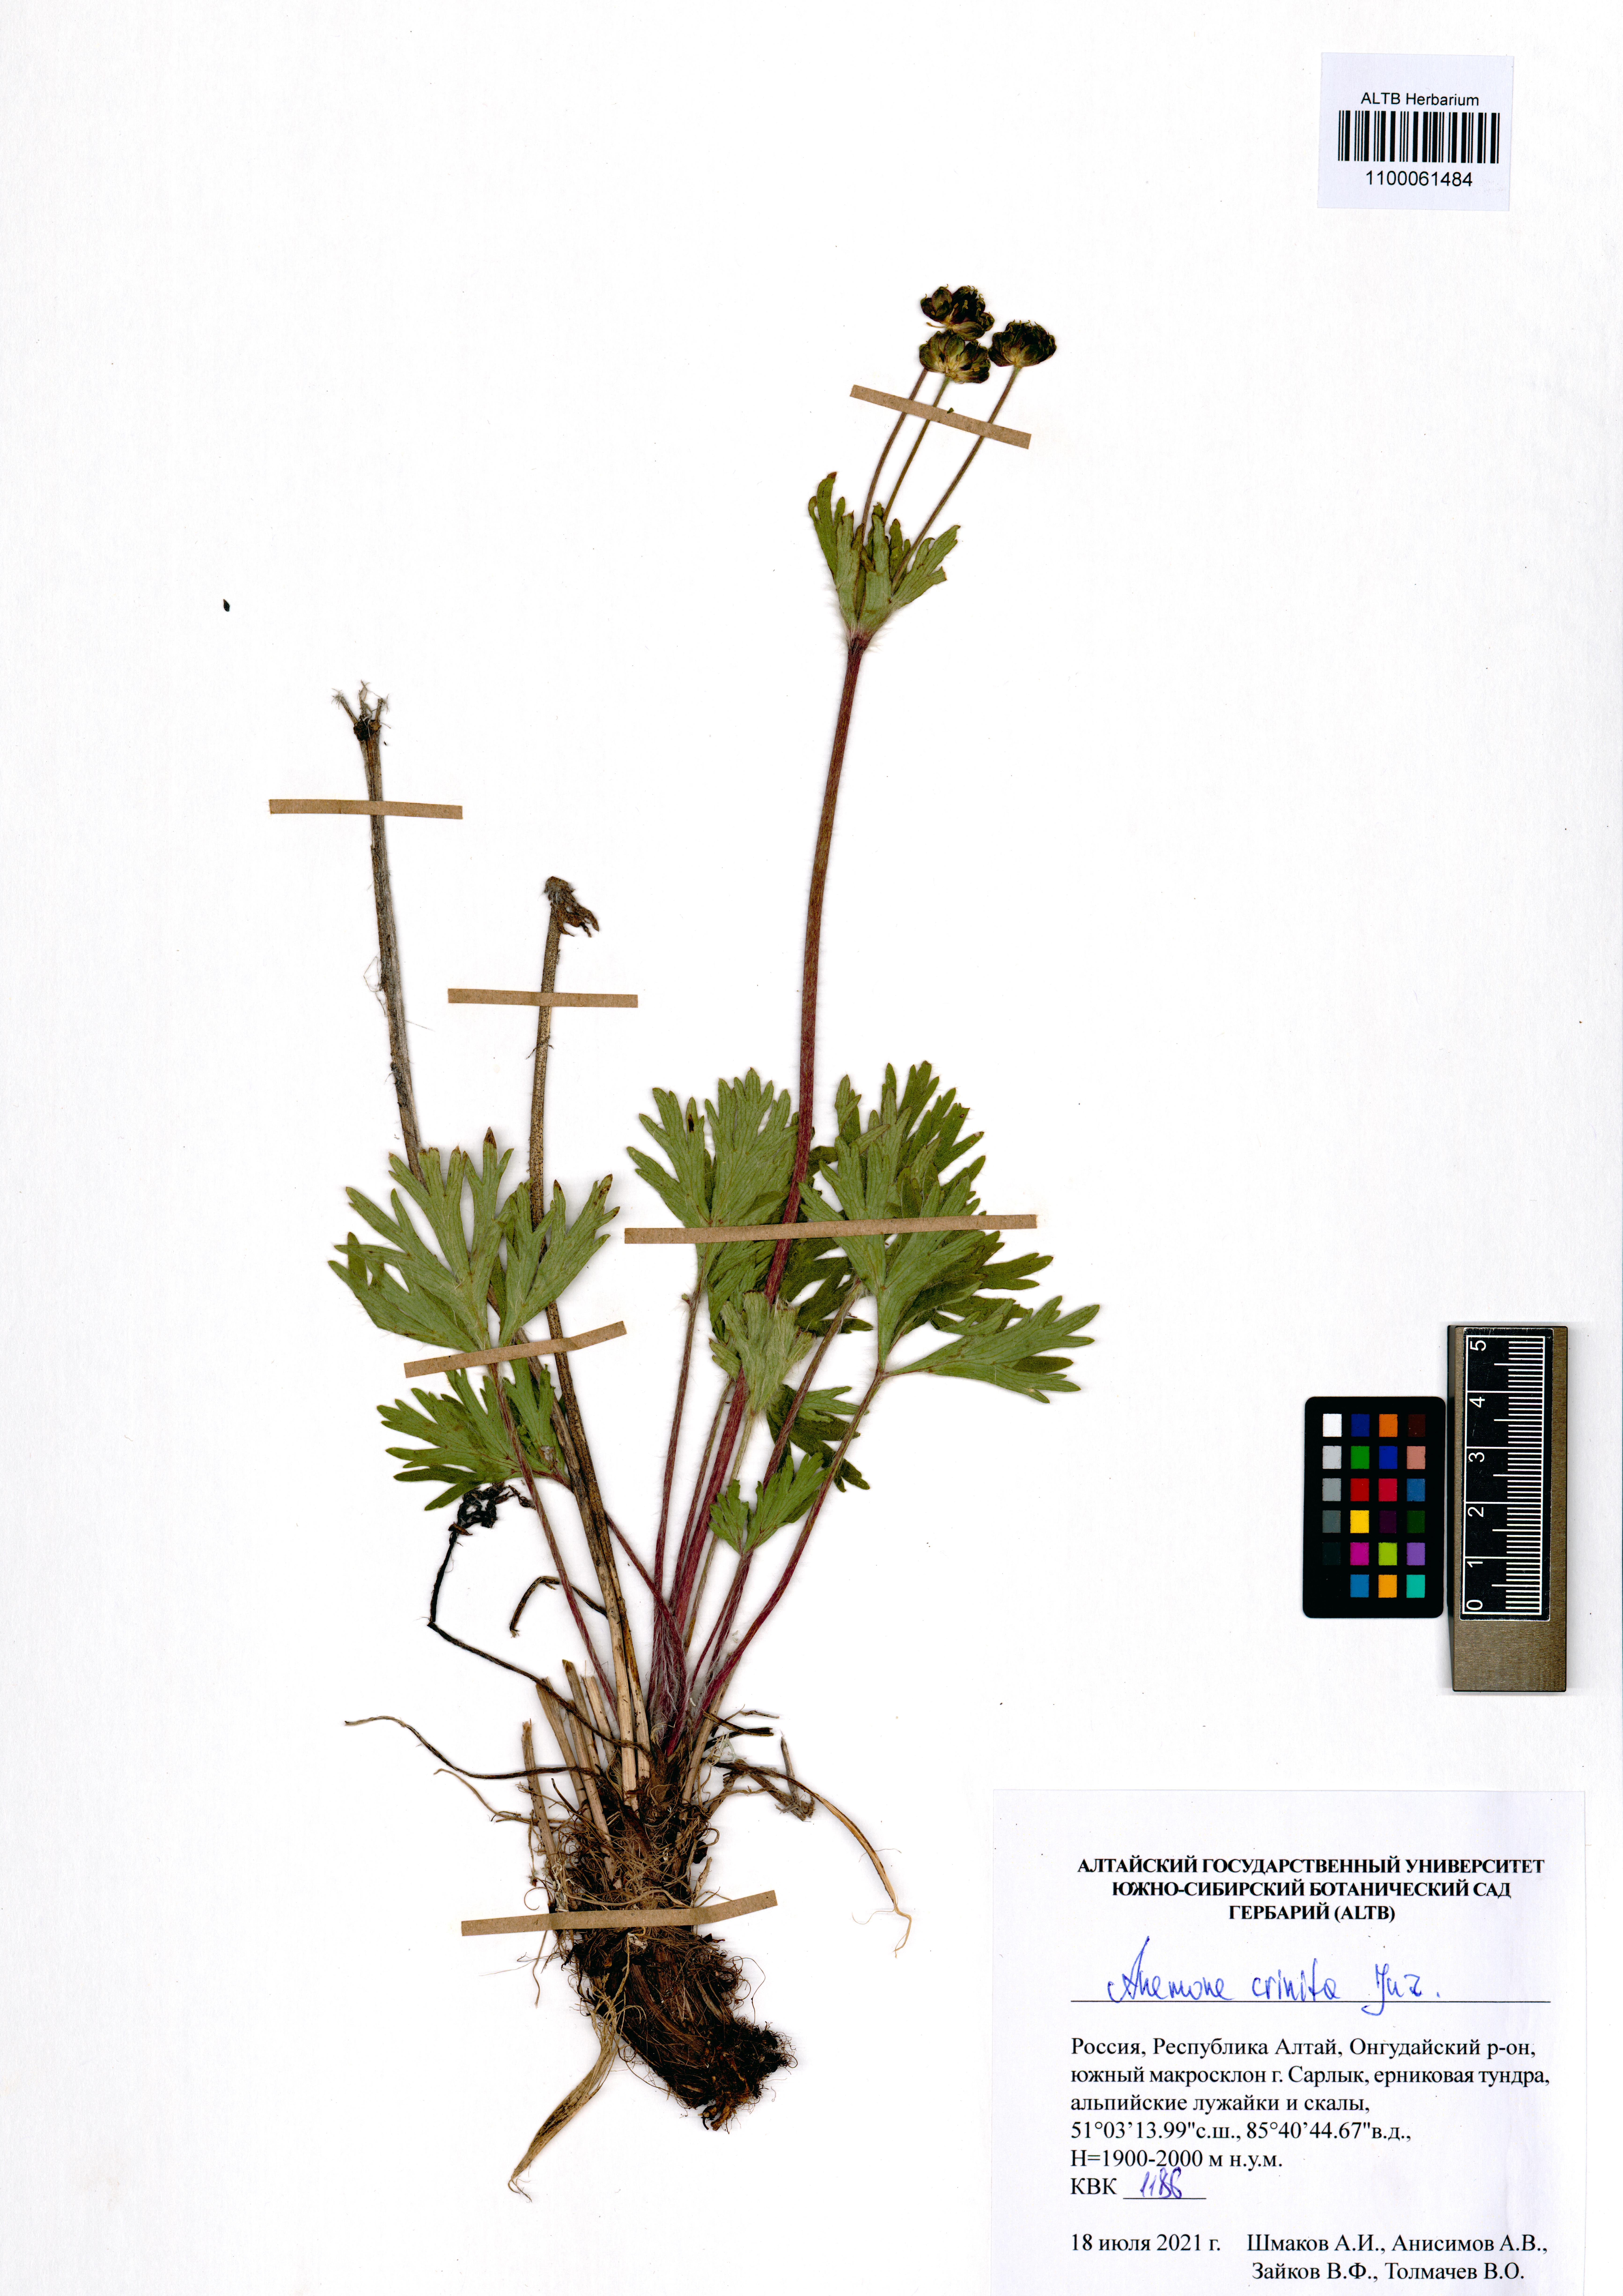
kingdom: Plantae
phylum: Tracheophyta
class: Magnoliopsida
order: Ranunculales
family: Ranunculaceae
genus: Anemonastrum
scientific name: Anemonastrum narcissiflorum
